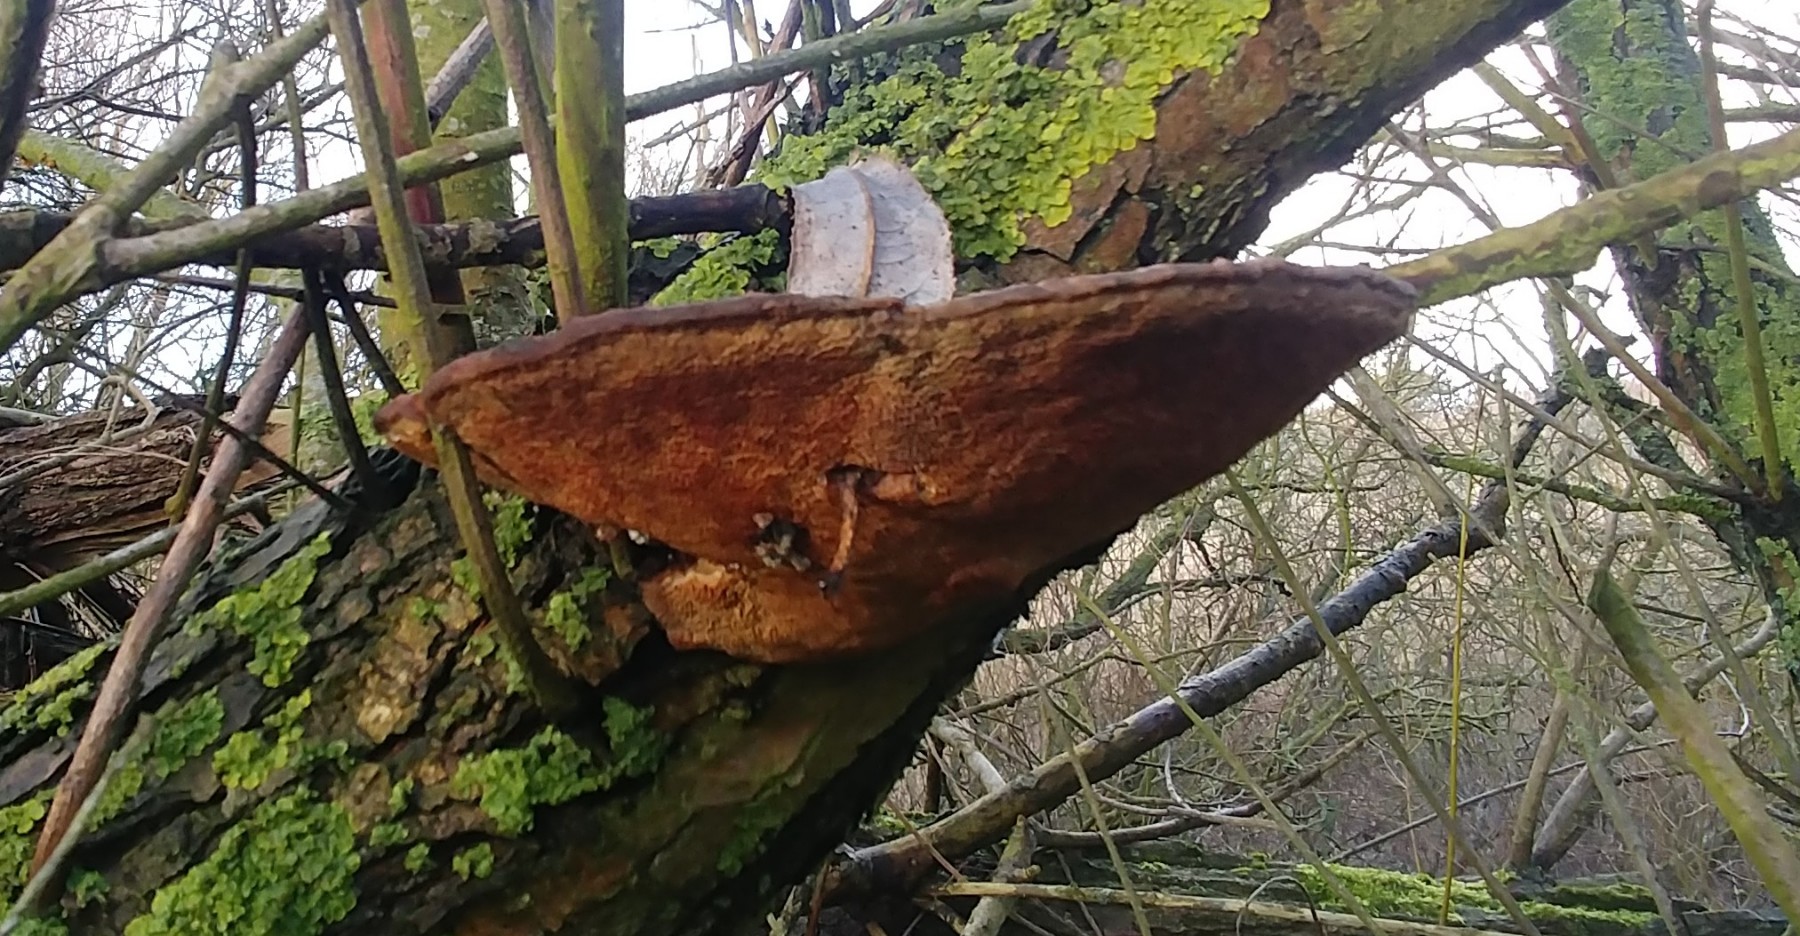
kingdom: Fungi
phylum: Basidiomycota
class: Agaricomycetes
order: Polyporales
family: Polyporaceae
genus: Daedaleopsis
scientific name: Daedaleopsis confragosa
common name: rødmende læderporesvamp
